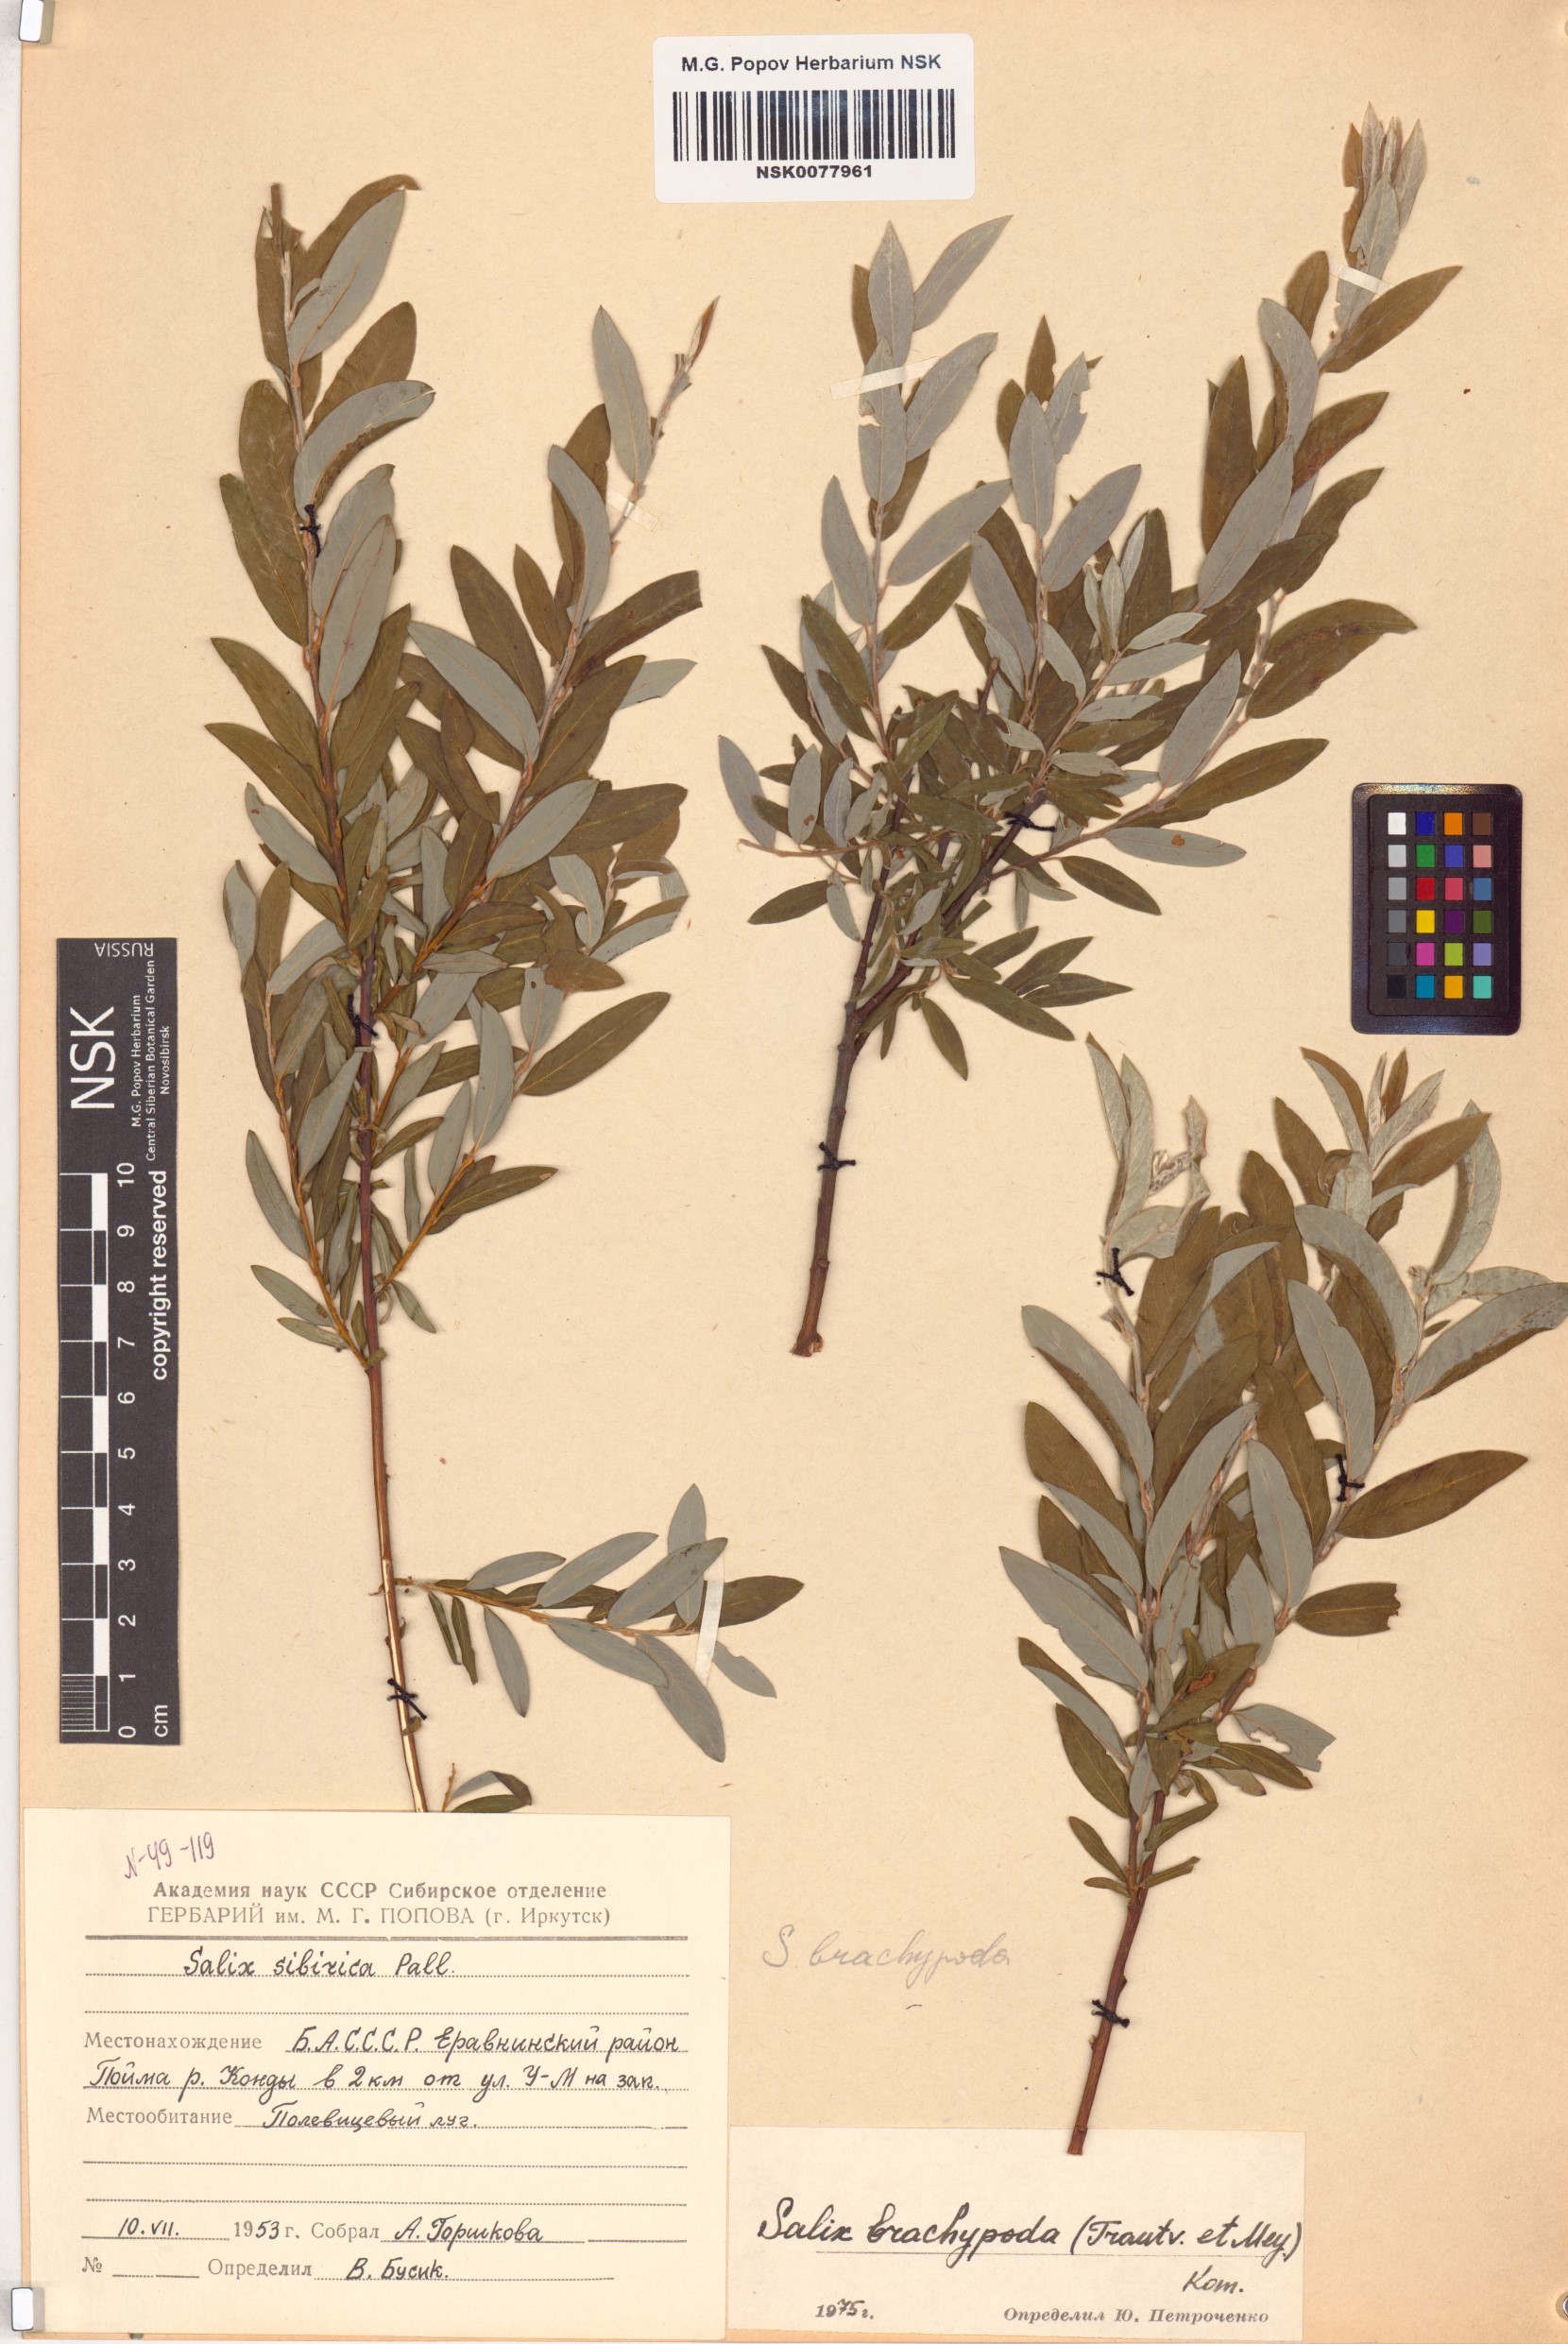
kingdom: Plantae
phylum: Tracheophyta
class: Magnoliopsida
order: Malpighiales
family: Salicaceae
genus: Salix
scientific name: Salix brachypoda
